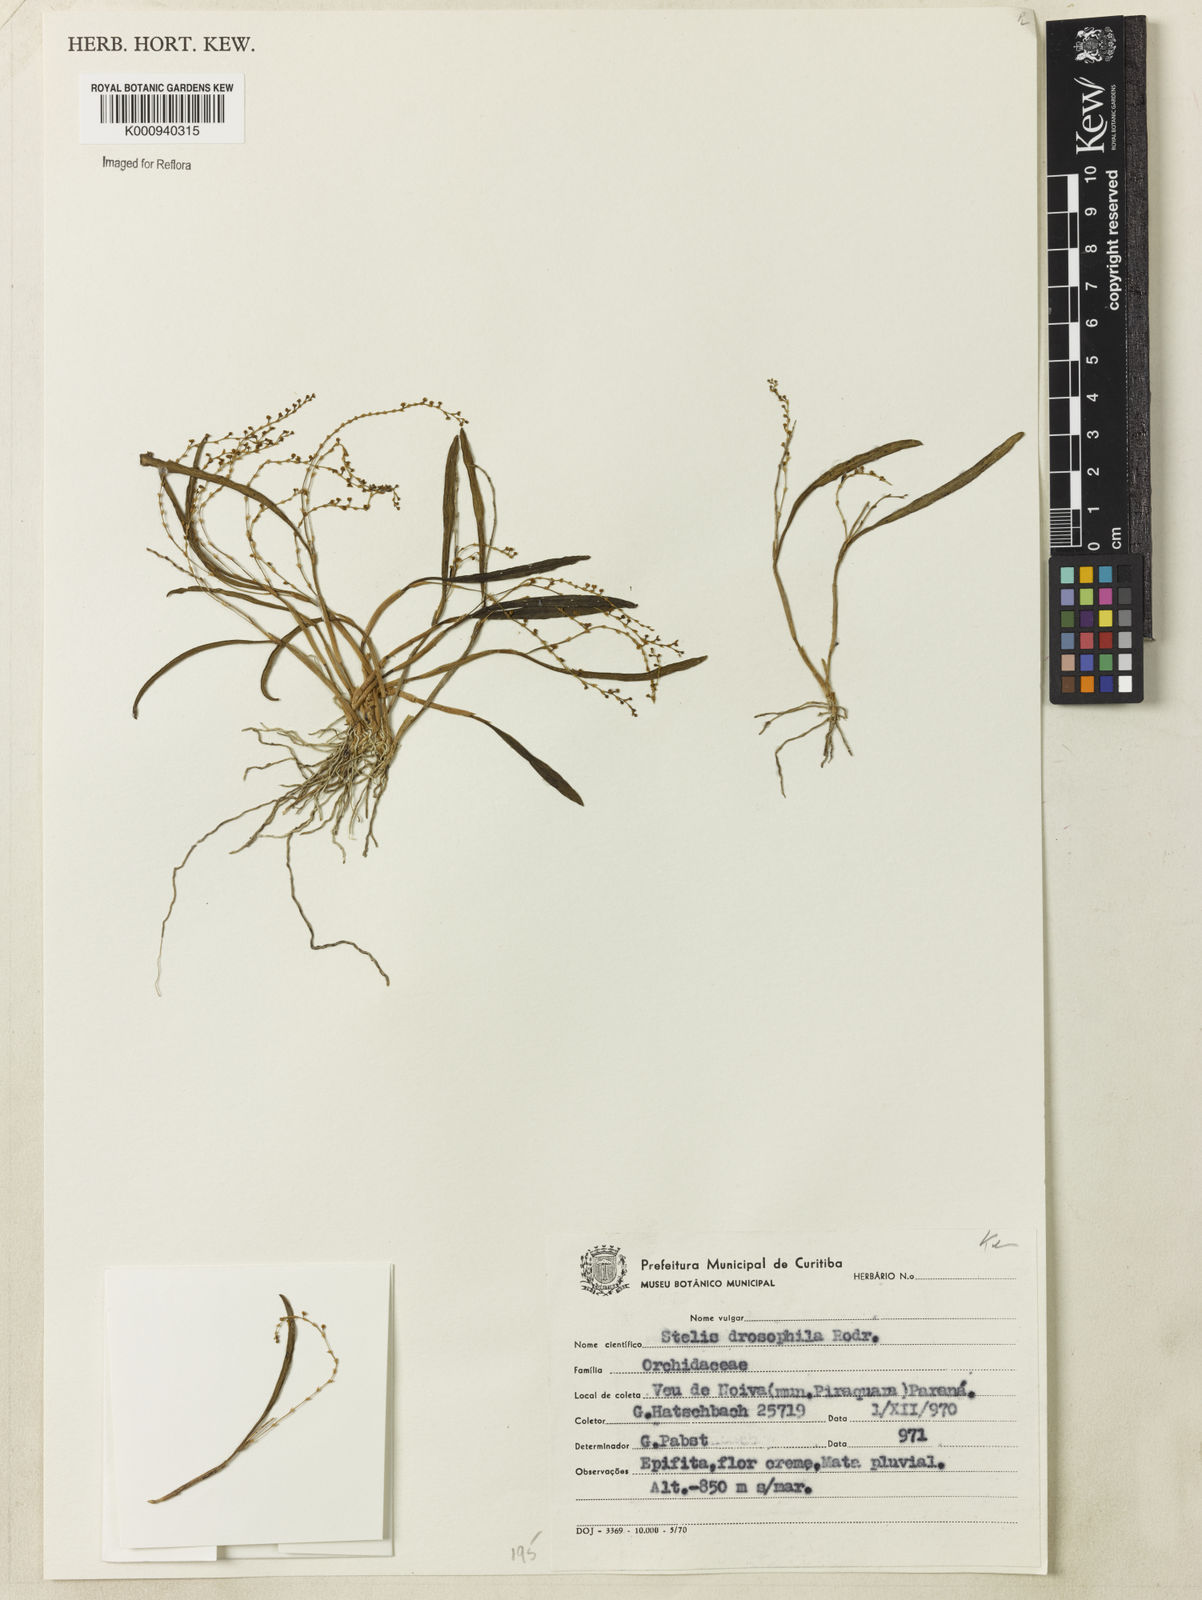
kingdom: Plantae
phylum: Tracheophyta
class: Liliopsida
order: Asparagales
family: Orchidaceae
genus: Stelis
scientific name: Stelis intermedia
